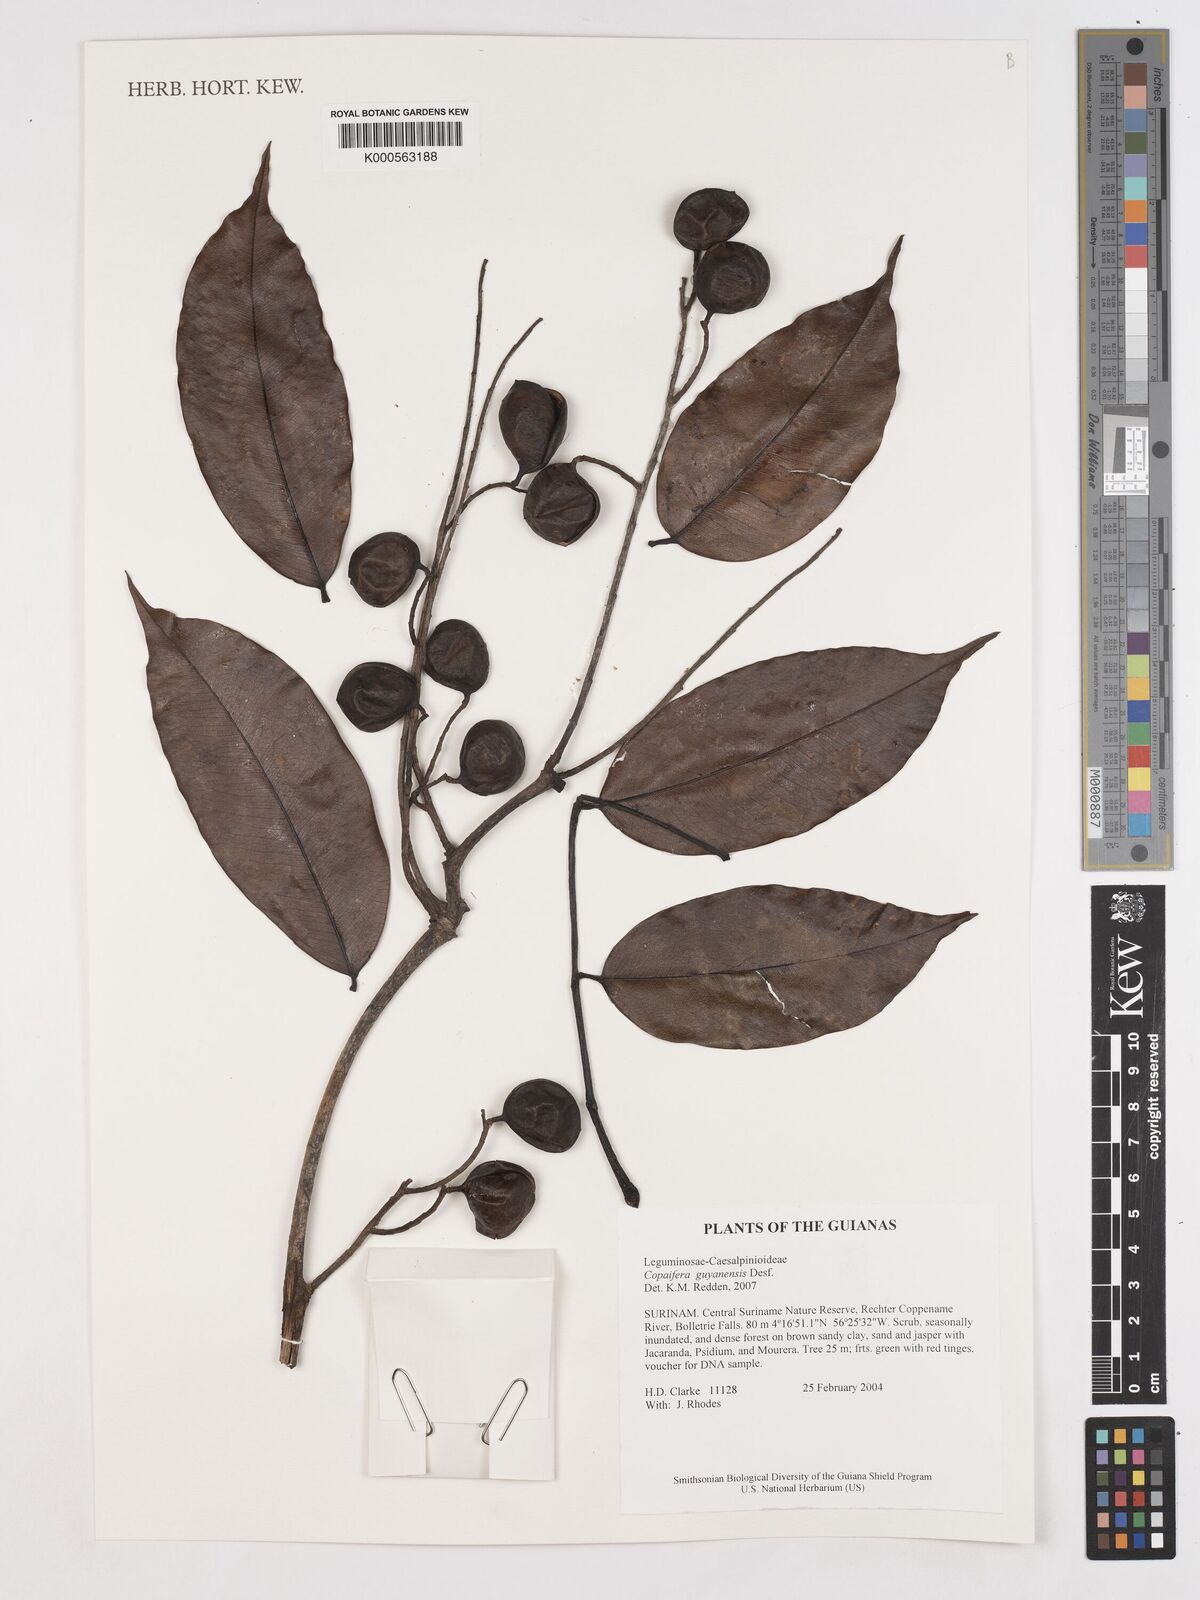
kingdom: Plantae
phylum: Tracheophyta
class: Magnoliopsida
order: Fabales
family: Fabaceae
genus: Copaifera
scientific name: Copaifera guianensis
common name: Copaiba
